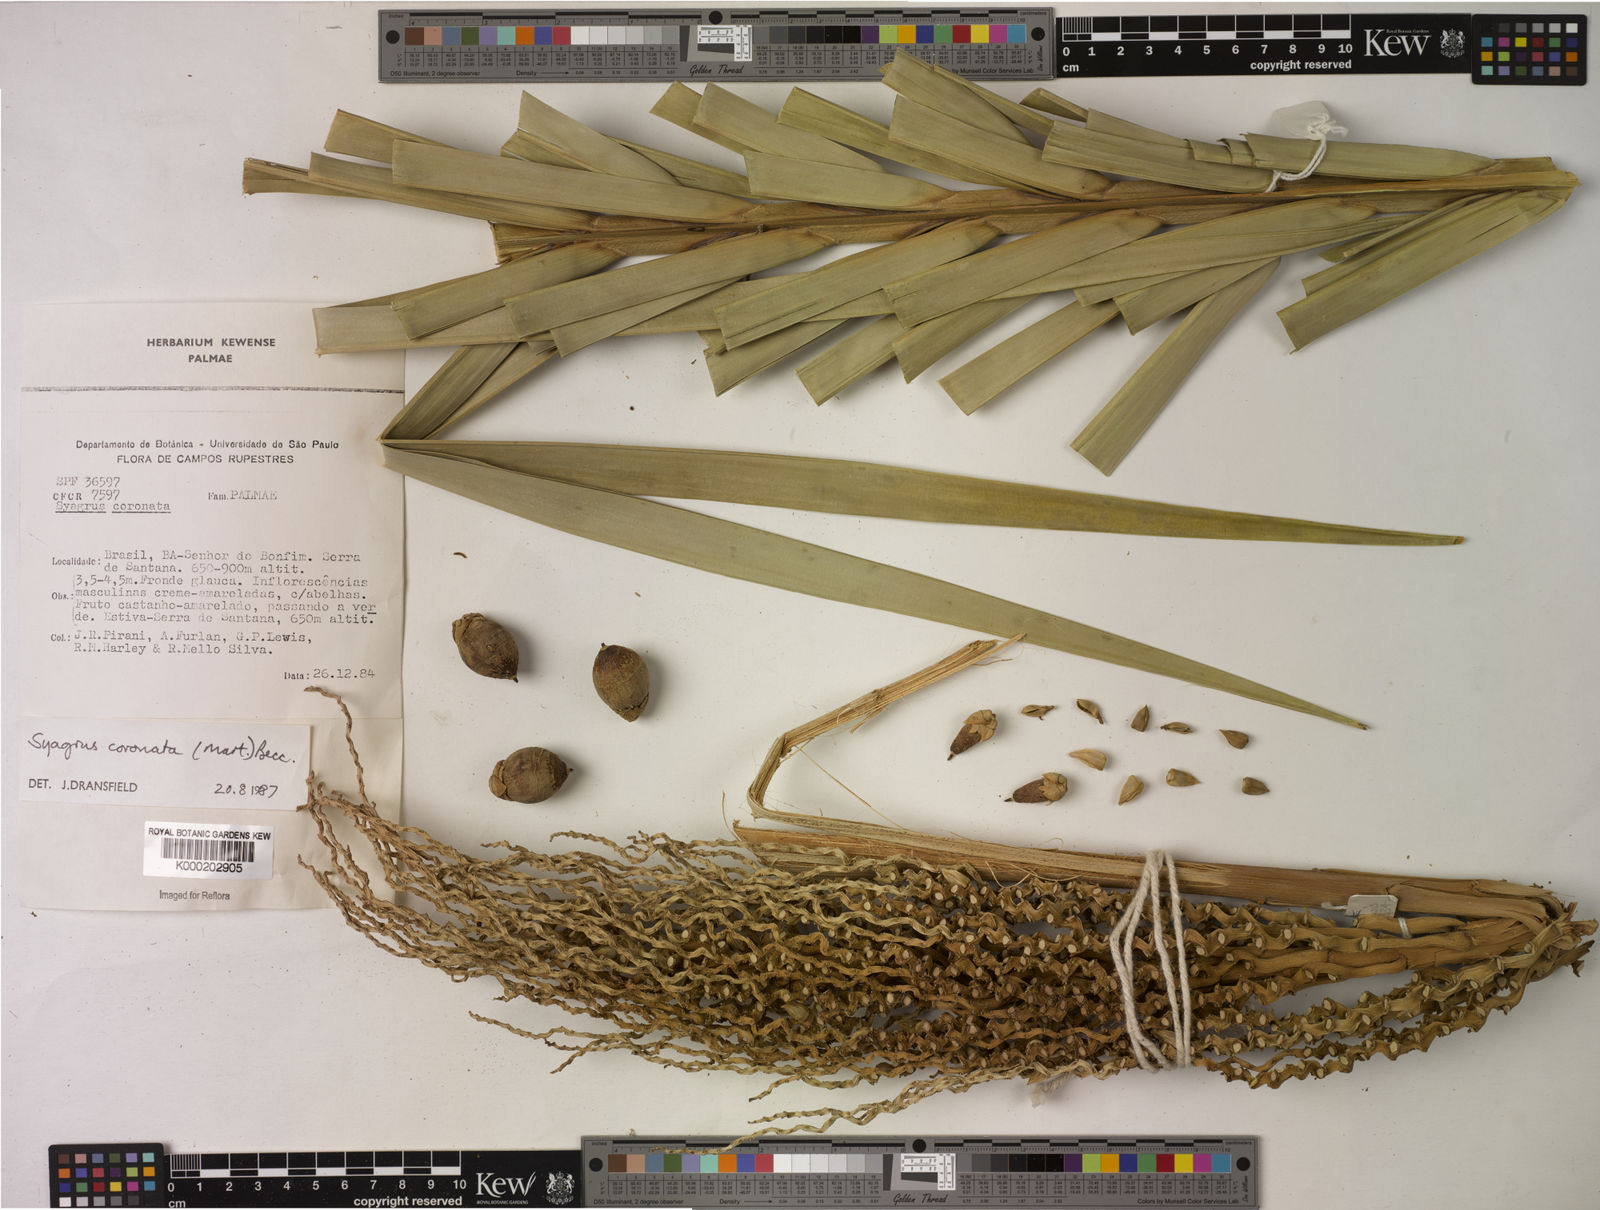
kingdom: Plantae
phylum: Tracheophyta
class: Liliopsida
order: Arecales
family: Arecaceae
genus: Syagrus
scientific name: Syagrus coronata
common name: Licuri palm
